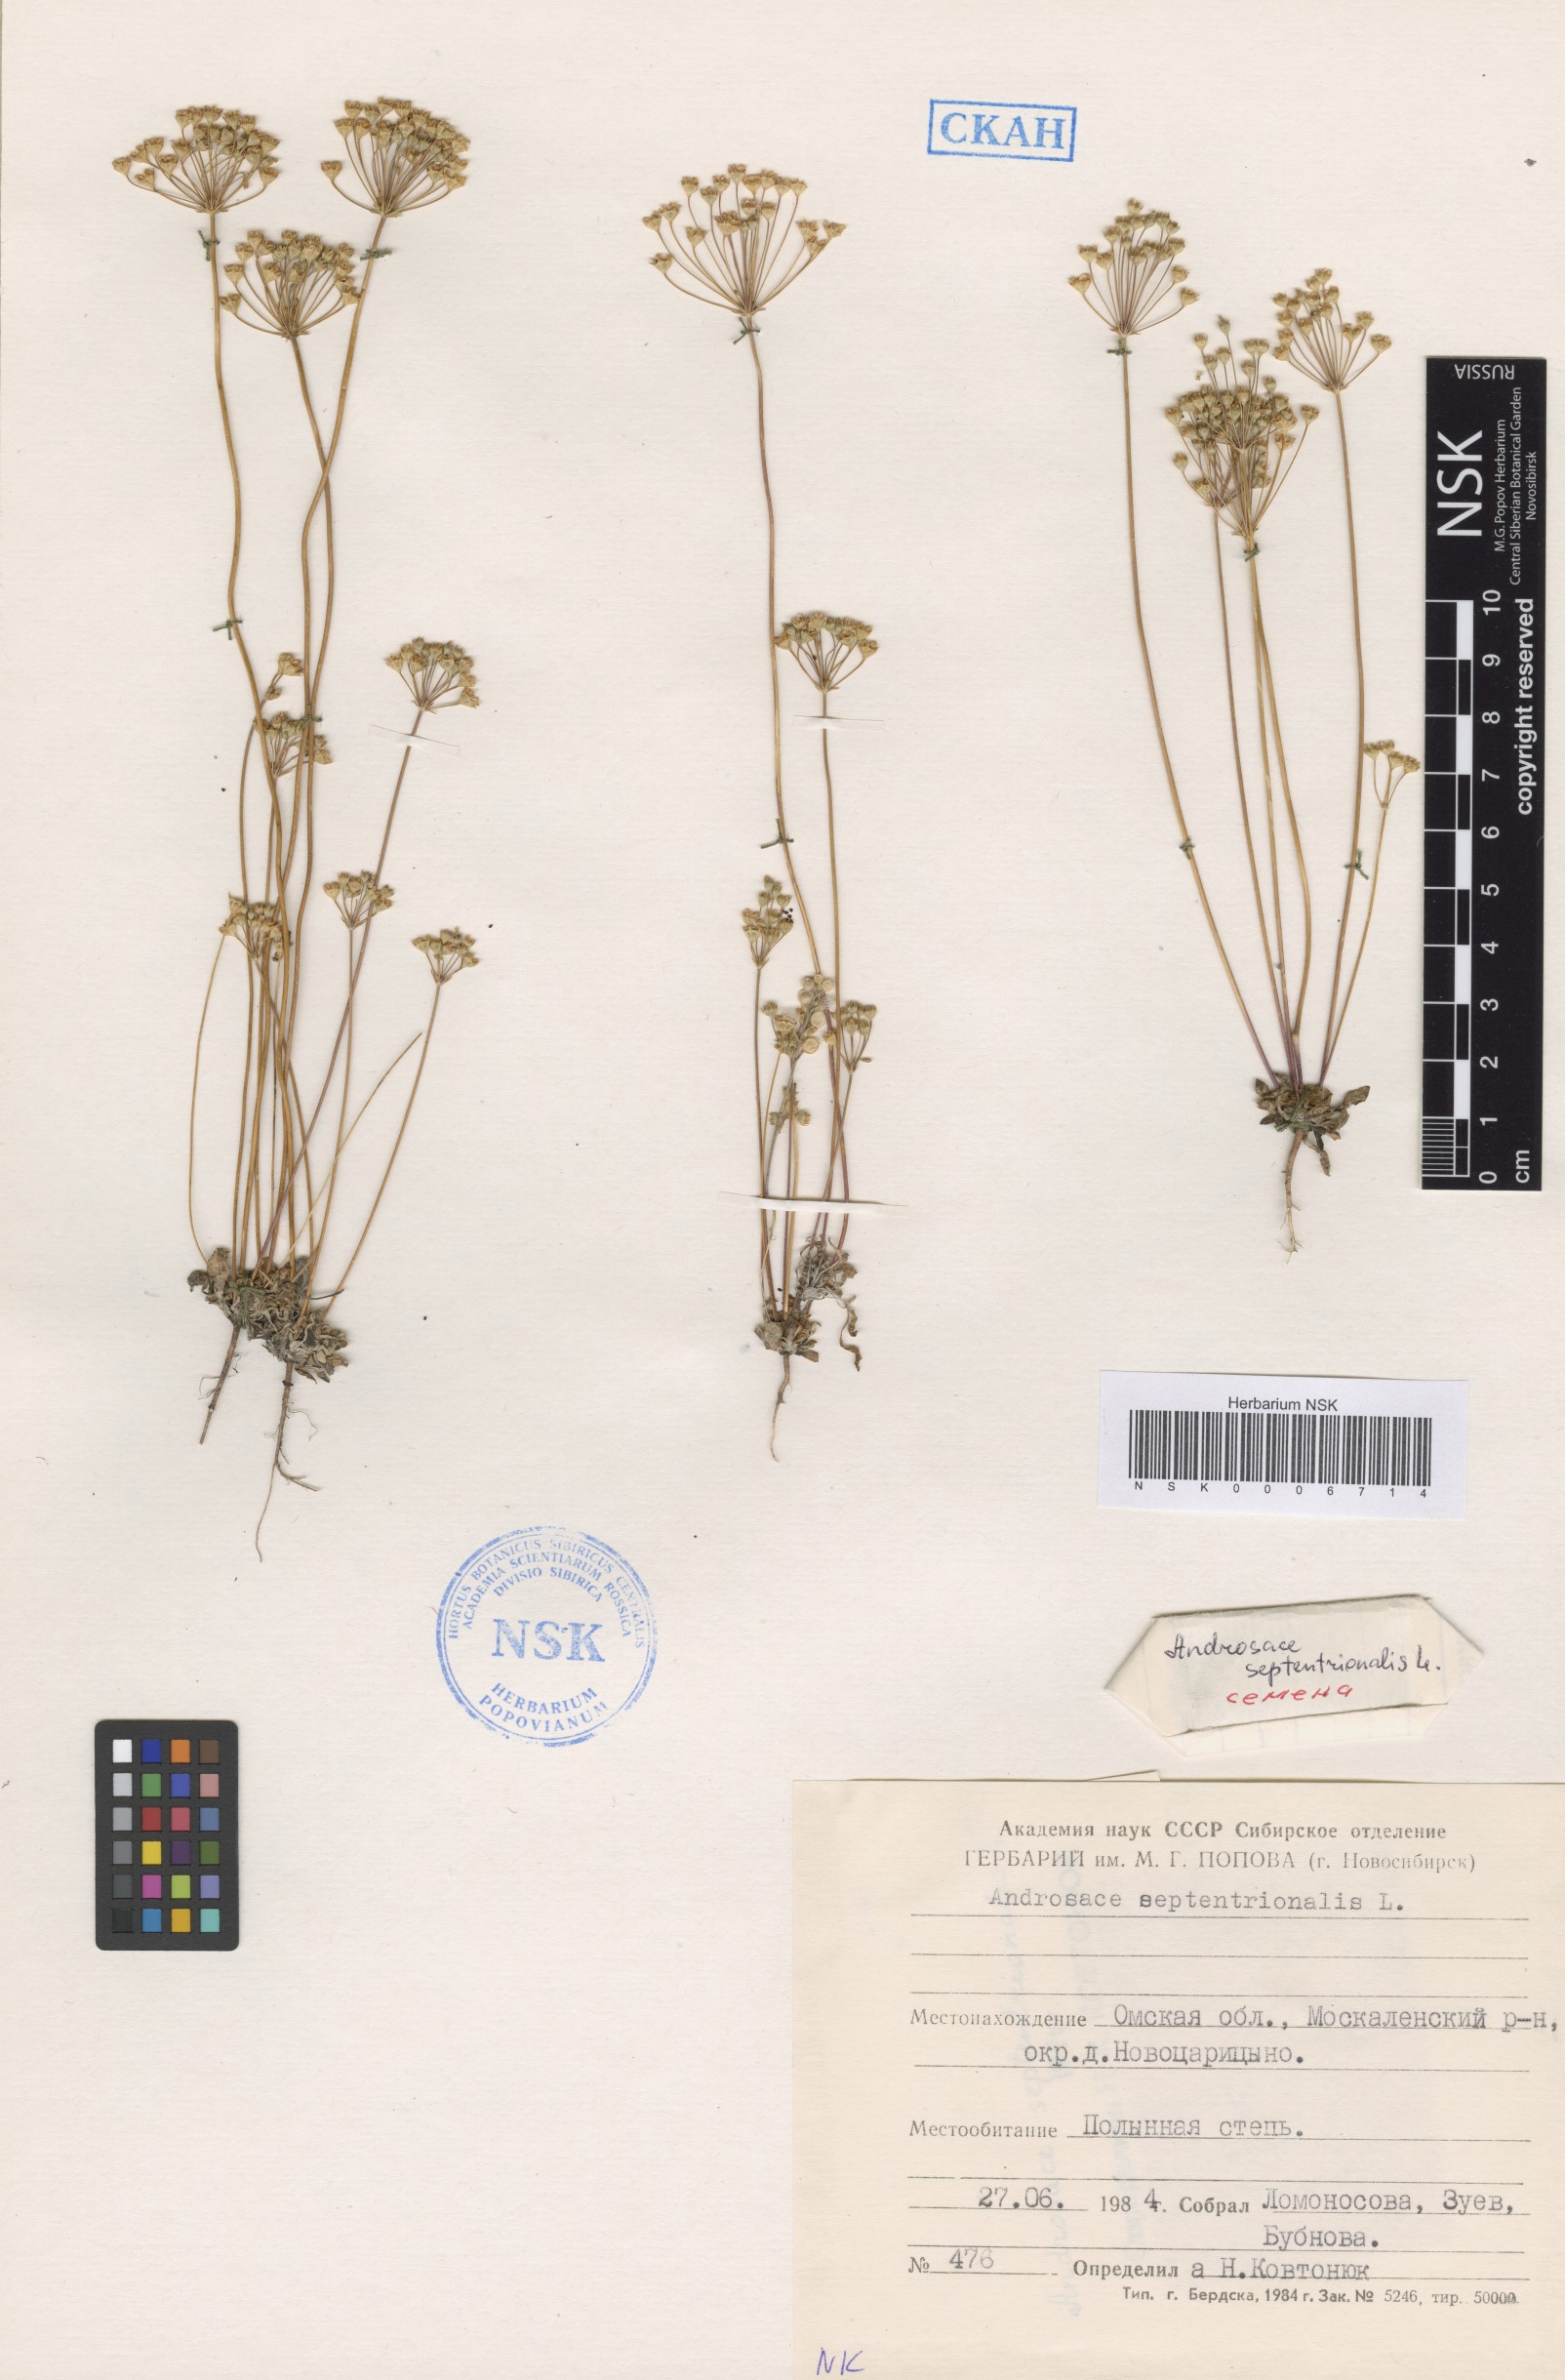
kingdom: Plantae
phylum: Tracheophyta
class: Magnoliopsida
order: Ericales
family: Primulaceae
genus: Androsace
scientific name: Androsace septentrionalis
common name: Hairy northern fairy-candelabra
